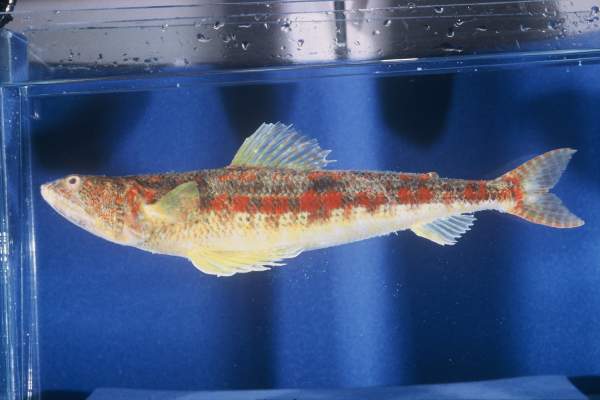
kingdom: Animalia
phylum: Chordata
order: Aulopiformes
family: Synodontidae
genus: Synodus
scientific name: Synodus variegatus
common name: Variegated lizardfish
